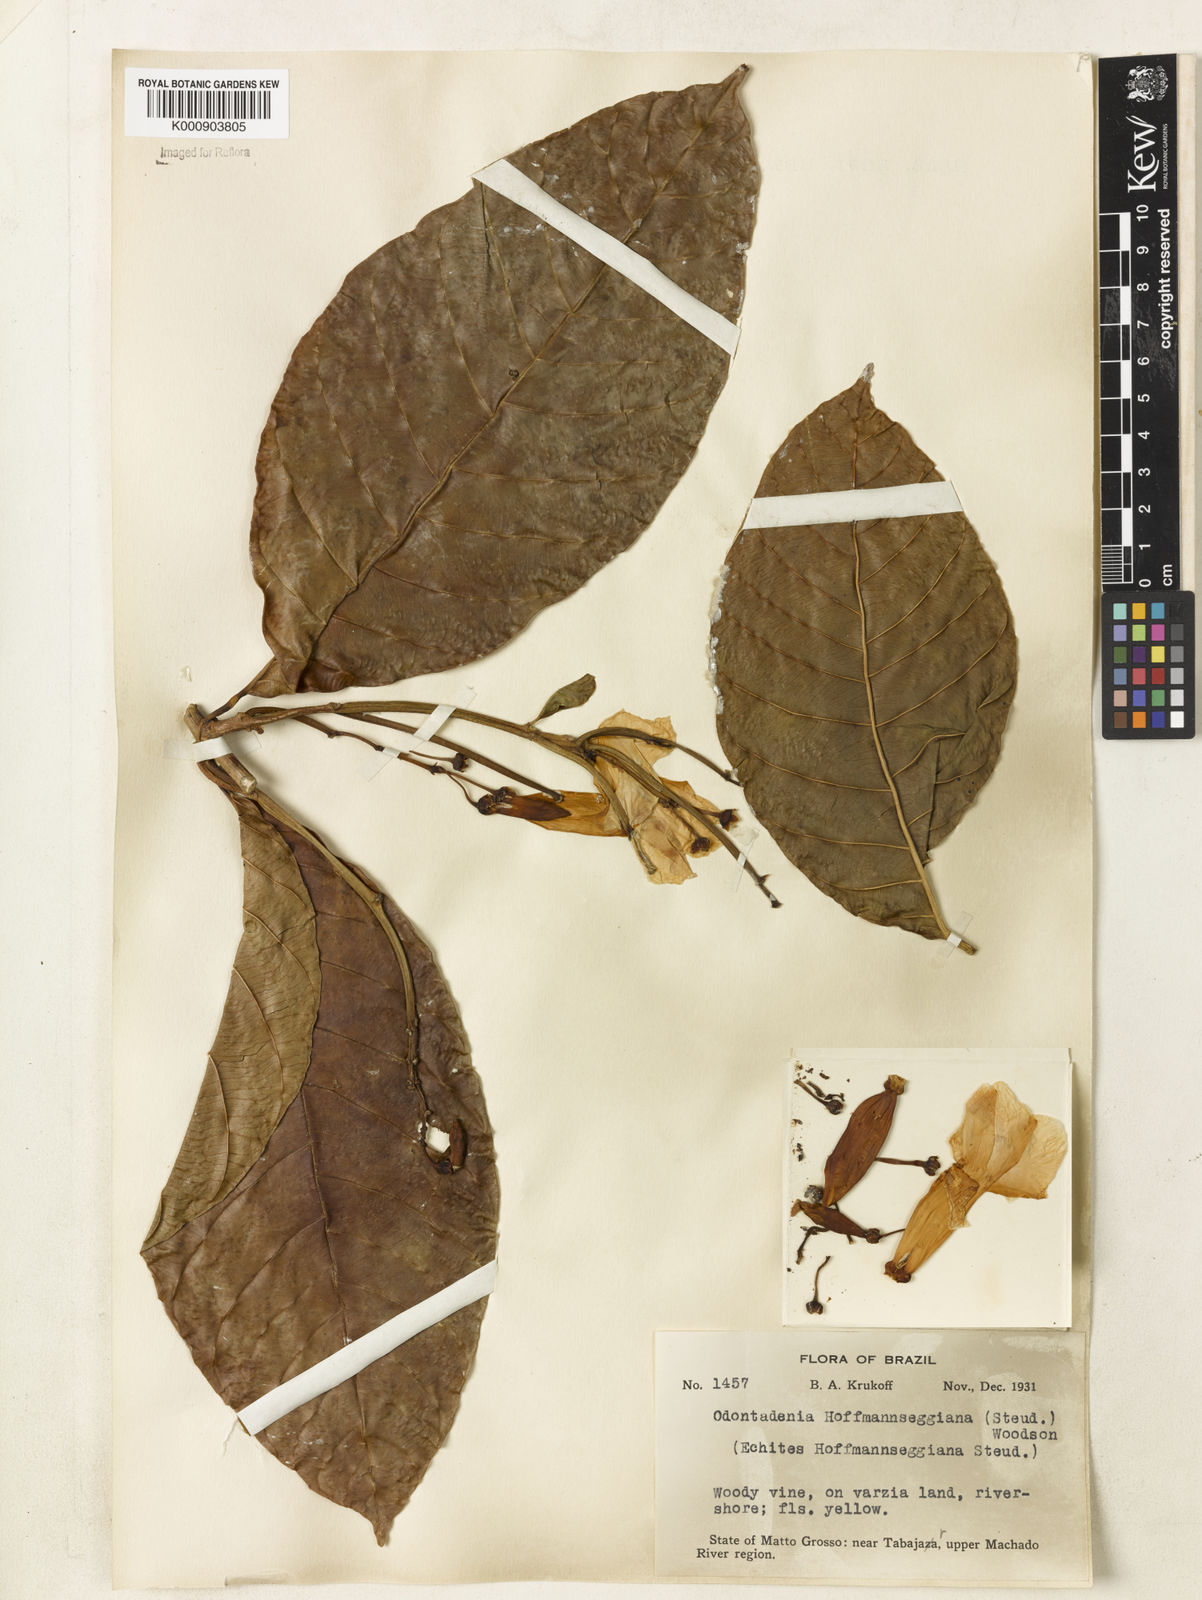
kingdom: Plantae
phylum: Tracheophyta
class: Magnoliopsida
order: Gentianales
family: Apocynaceae
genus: Odontadenia
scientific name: Odontadenia semidigyna
